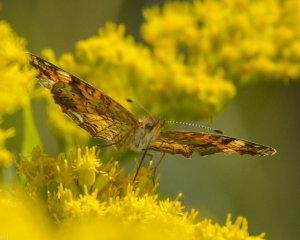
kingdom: Animalia
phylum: Arthropoda
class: Insecta
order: Lepidoptera
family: Nymphalidae
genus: Phyciodes
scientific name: Phyciodes tharos
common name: Northern Crescent
